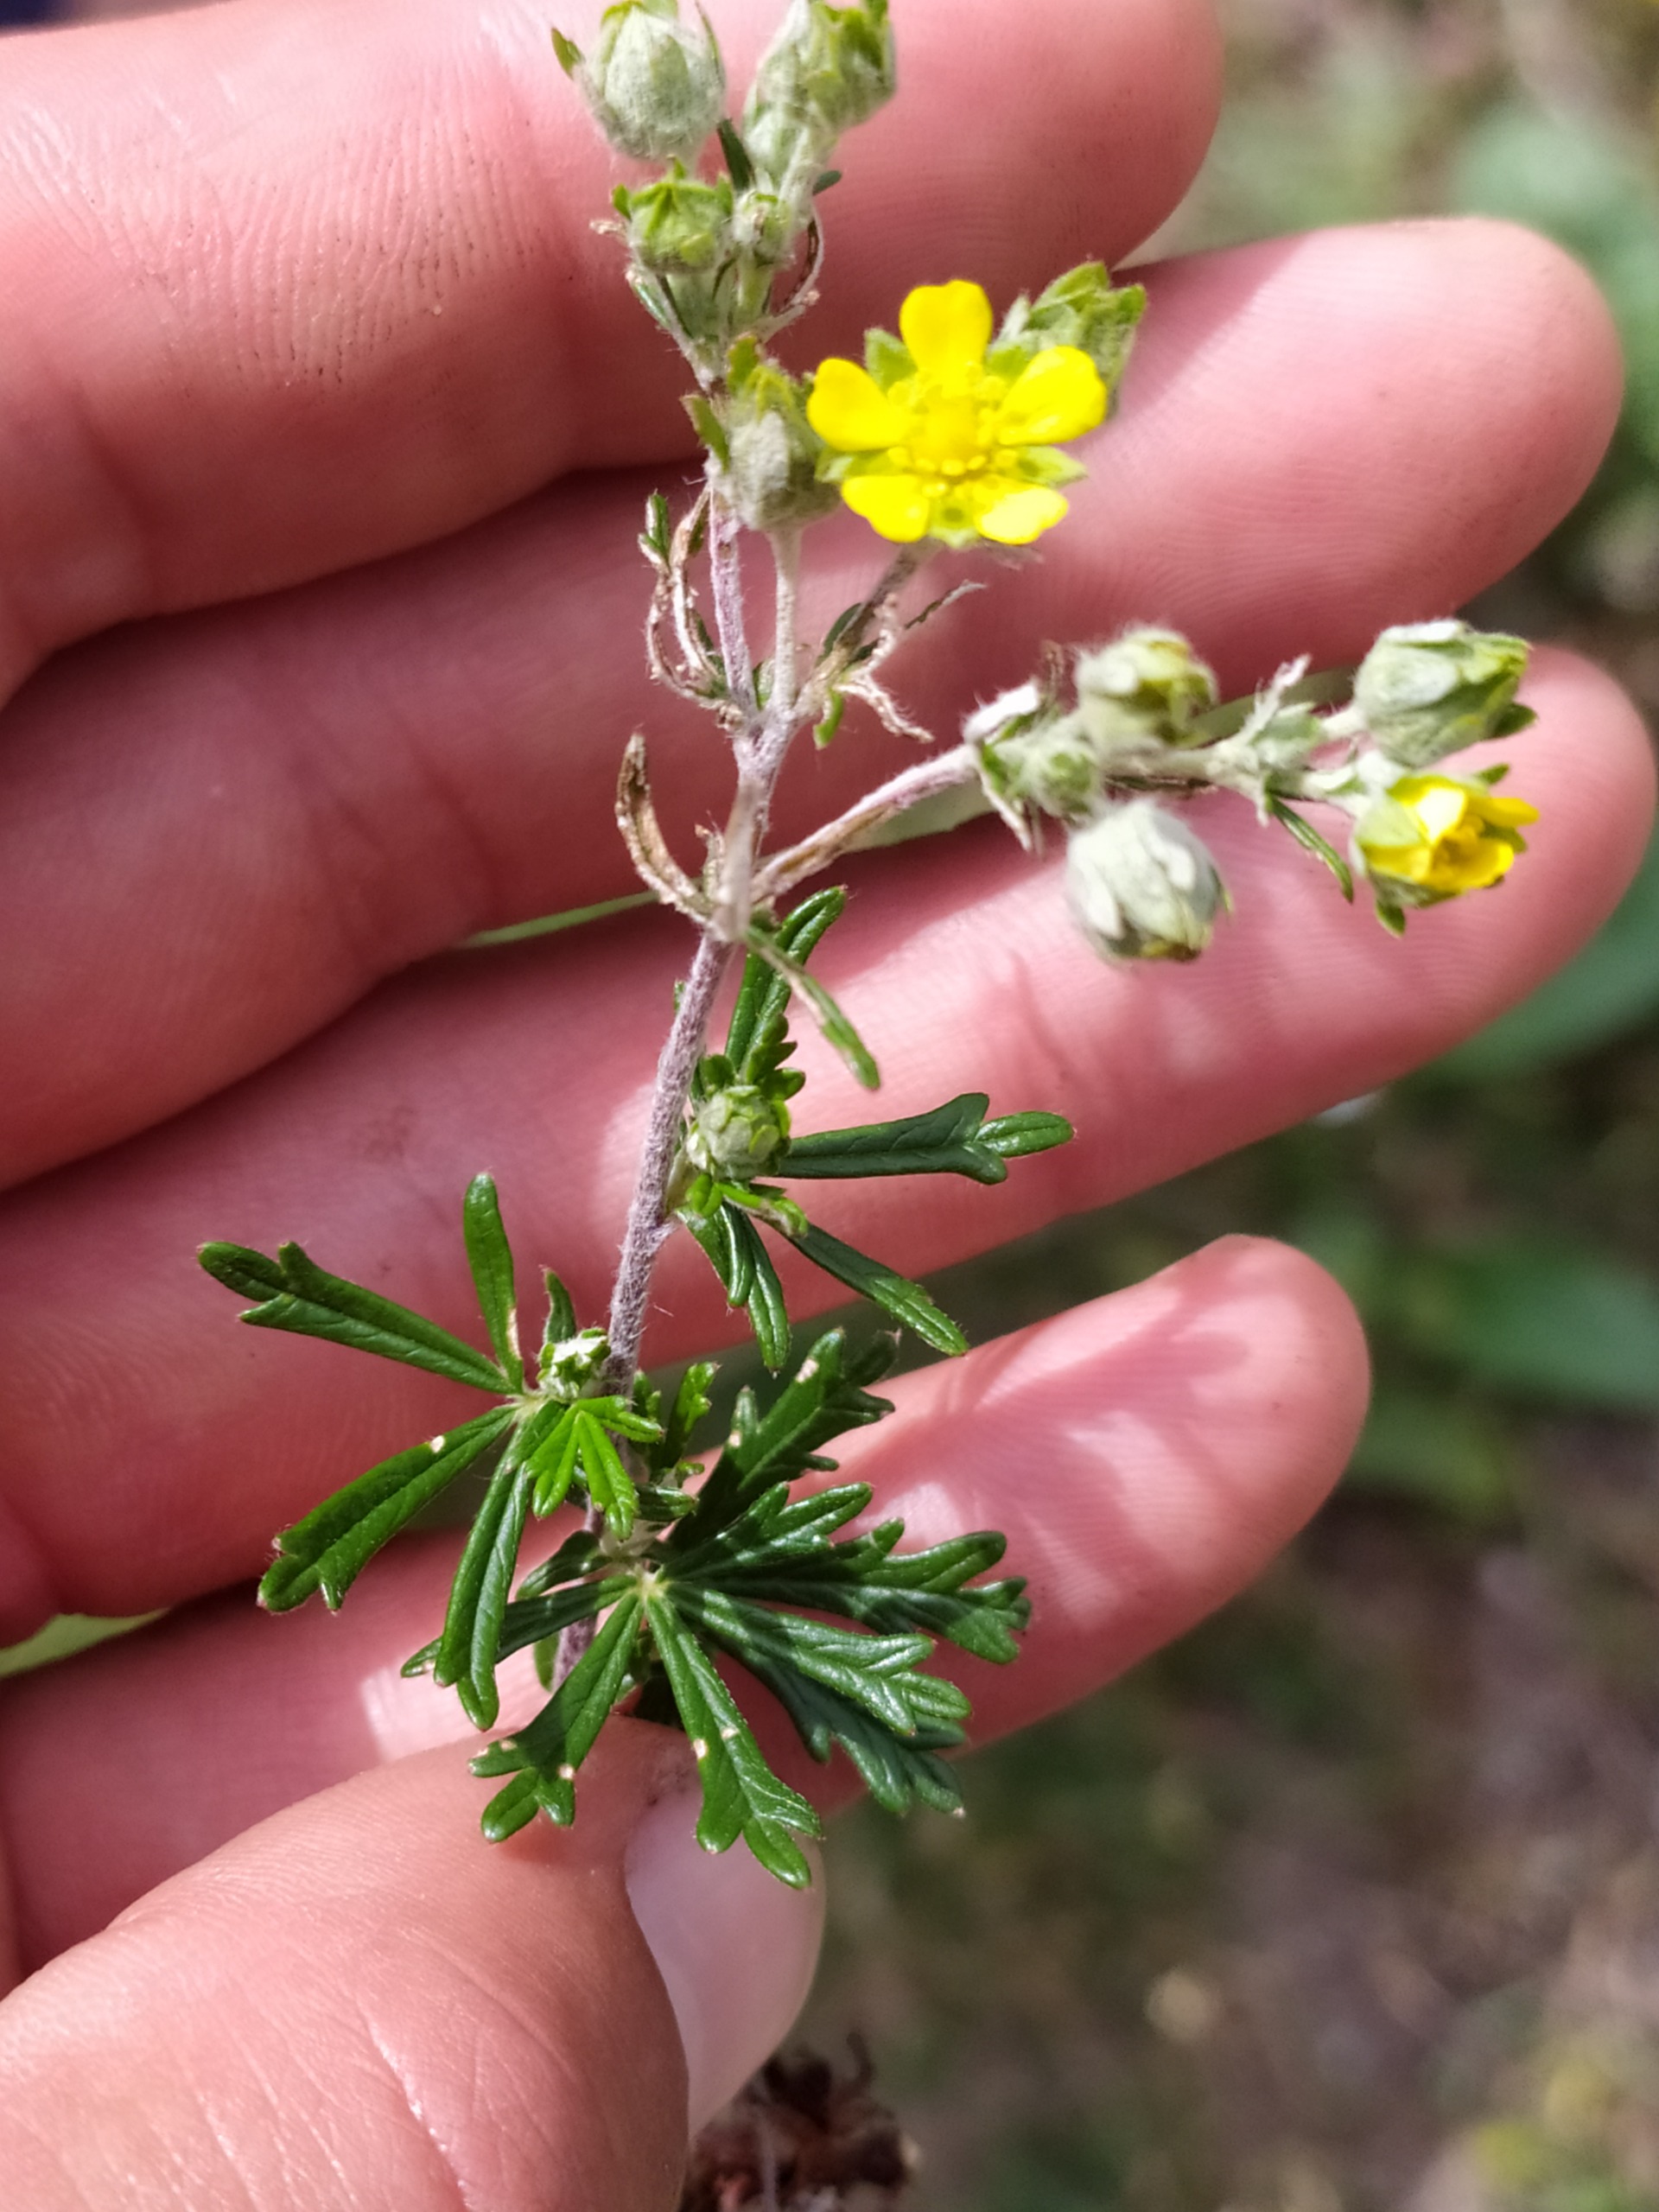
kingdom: Plantae
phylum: Tracheophyta
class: Magnoliopsida
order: Rosales
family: Rosaceae
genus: Potentilla
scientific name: Potentilla argentea
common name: Sølv-potentil
